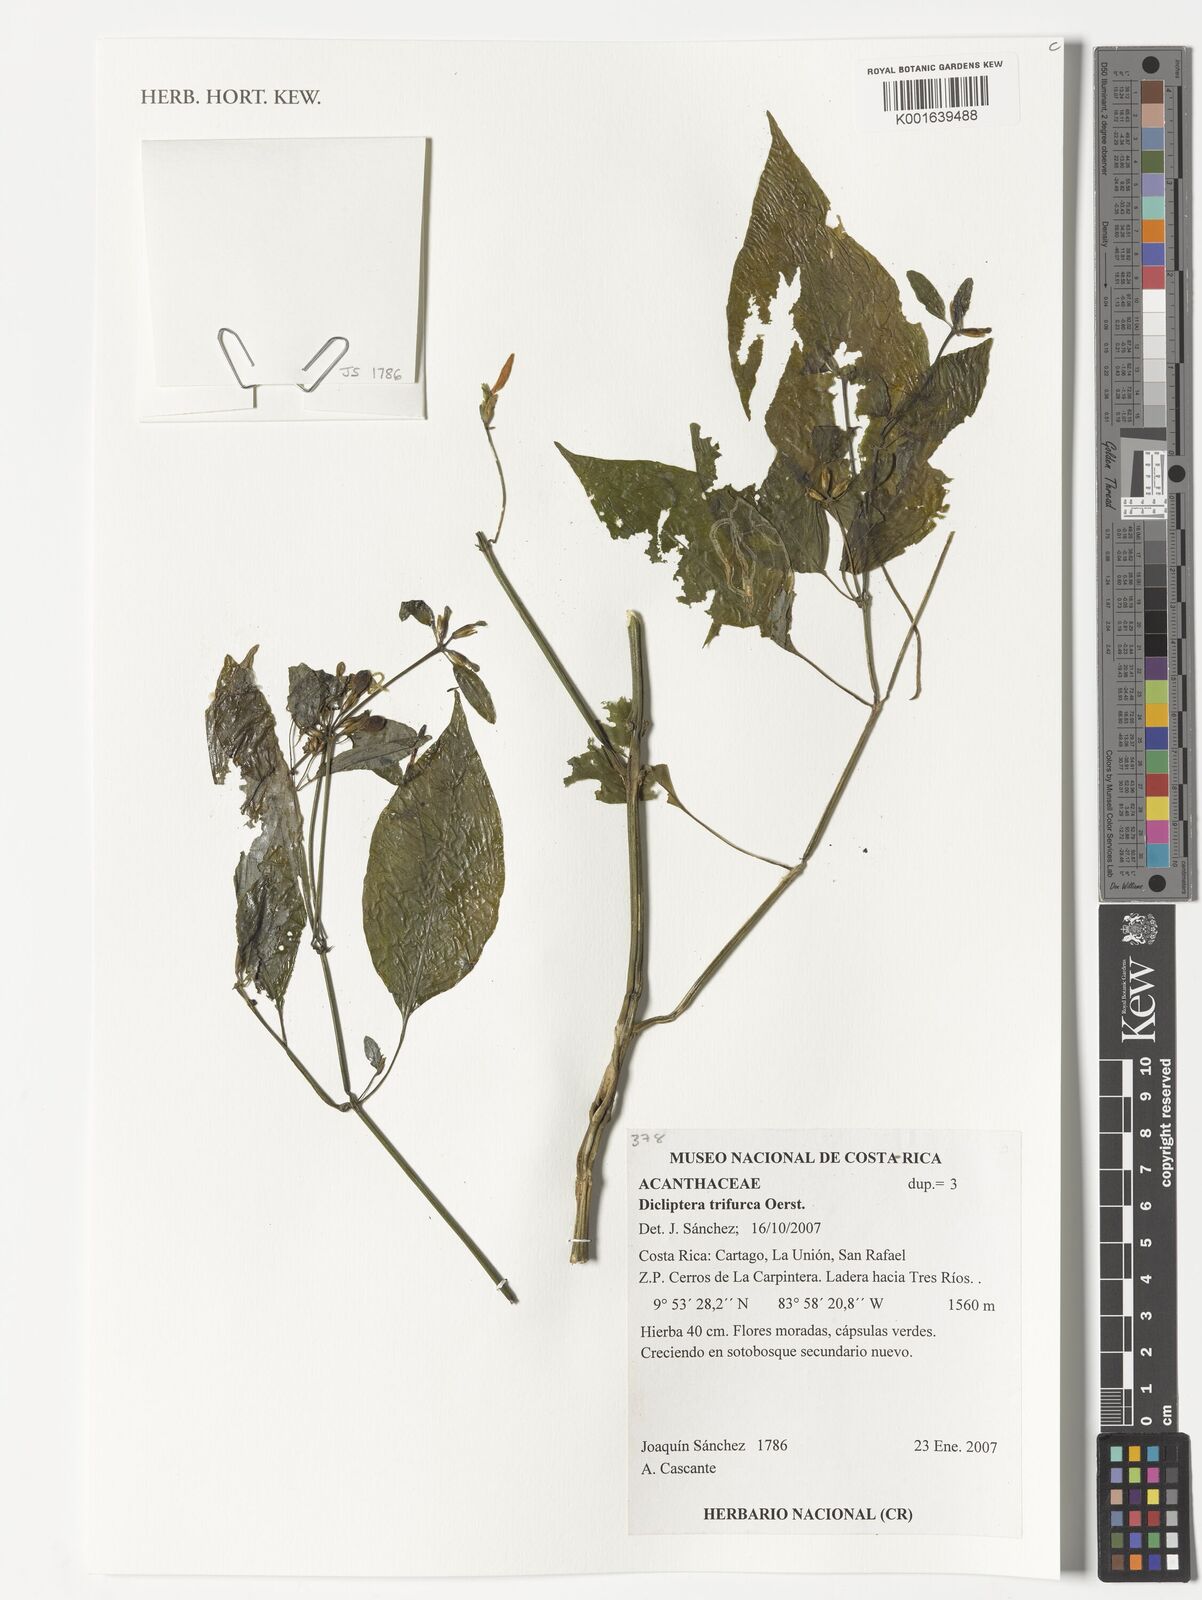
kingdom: Plantae
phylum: Tracheophyta
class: Magnoliopsida
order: Lamiales
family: Acanthaceae
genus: Dicliptera
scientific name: Dicliptera trifurca
